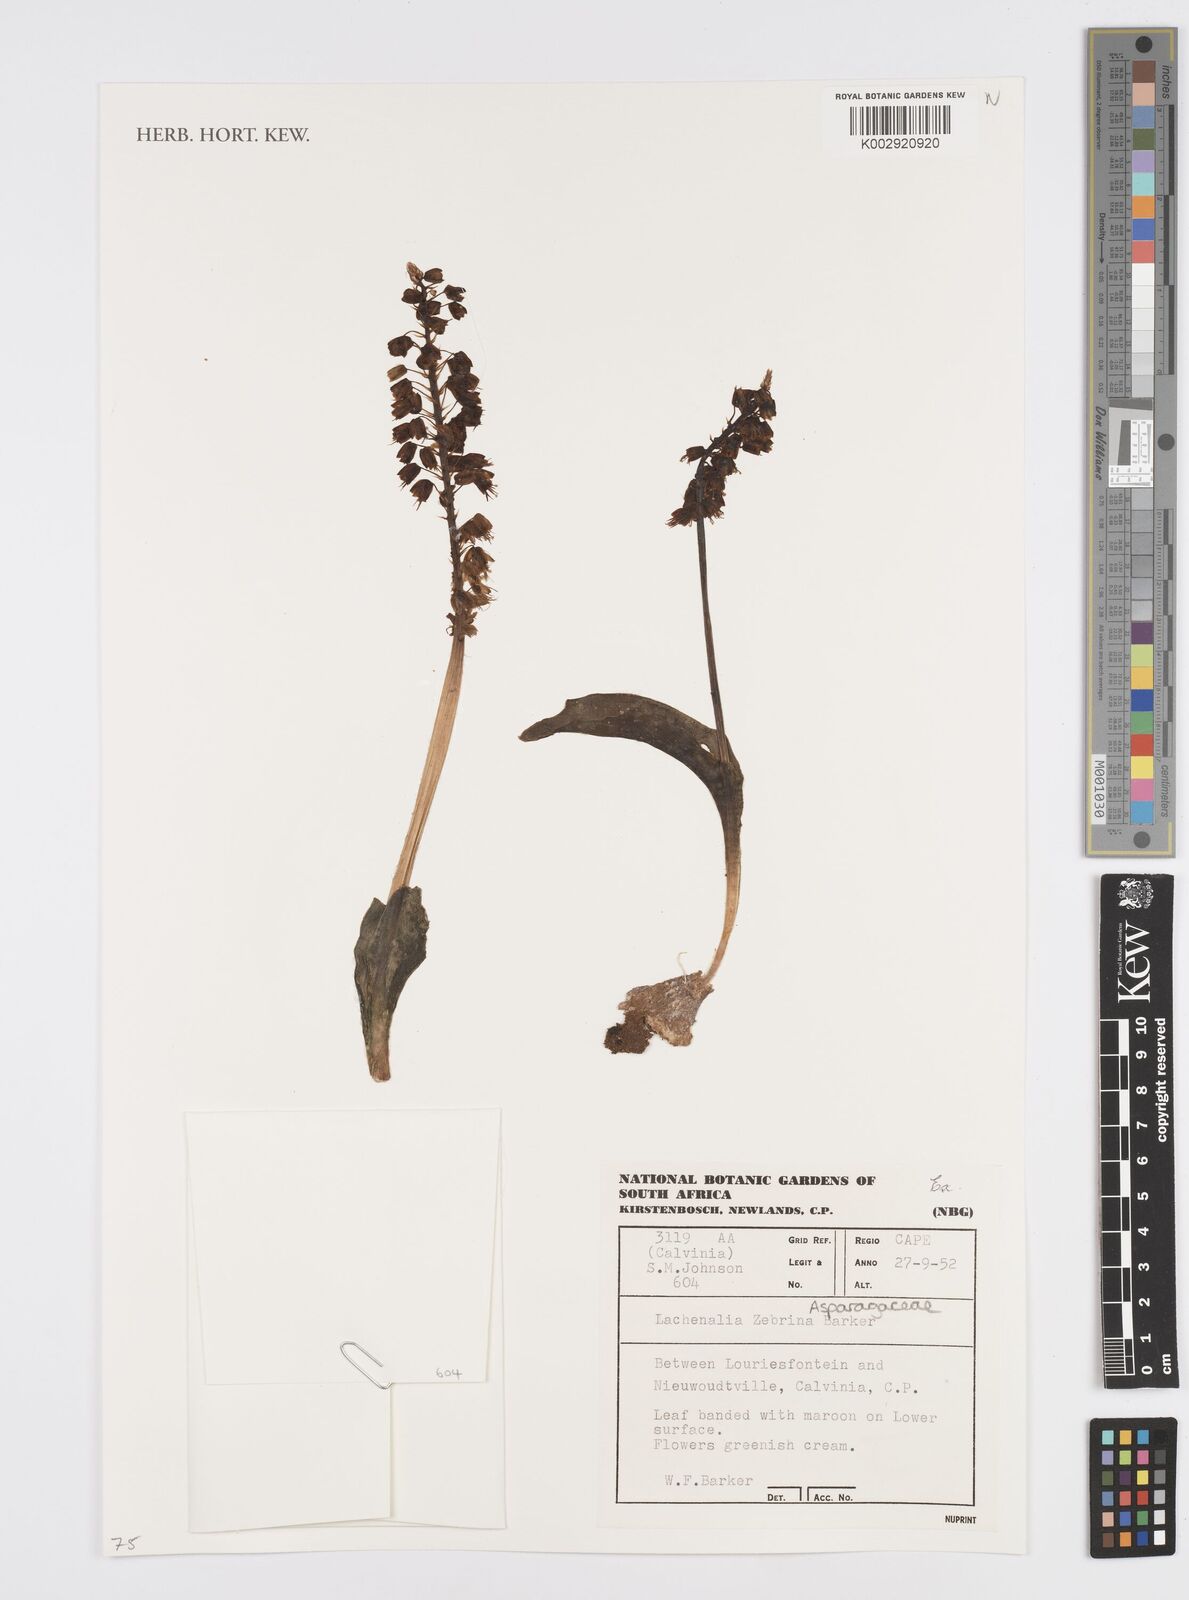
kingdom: Plantae
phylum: Tracheophyta
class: Liliopsida
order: Asparagales
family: Asparagaceae
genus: Lachenalia
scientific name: Lachenalia zebrina
